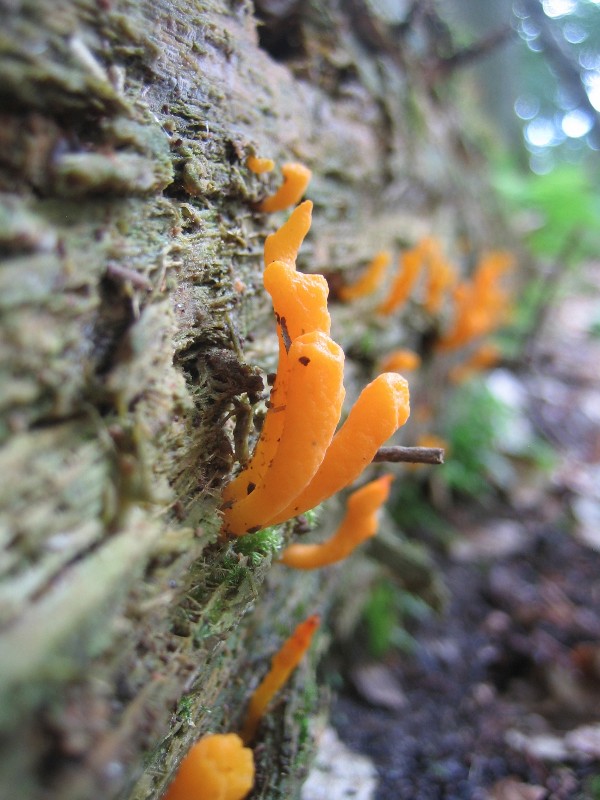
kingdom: Fungi
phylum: Basidiomycota
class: Dacrymycetes
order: Dacrymycetales
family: Dacrymycetaceae
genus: Calocera
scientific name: Calocera furcata
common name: fyrre-guldgaffel
